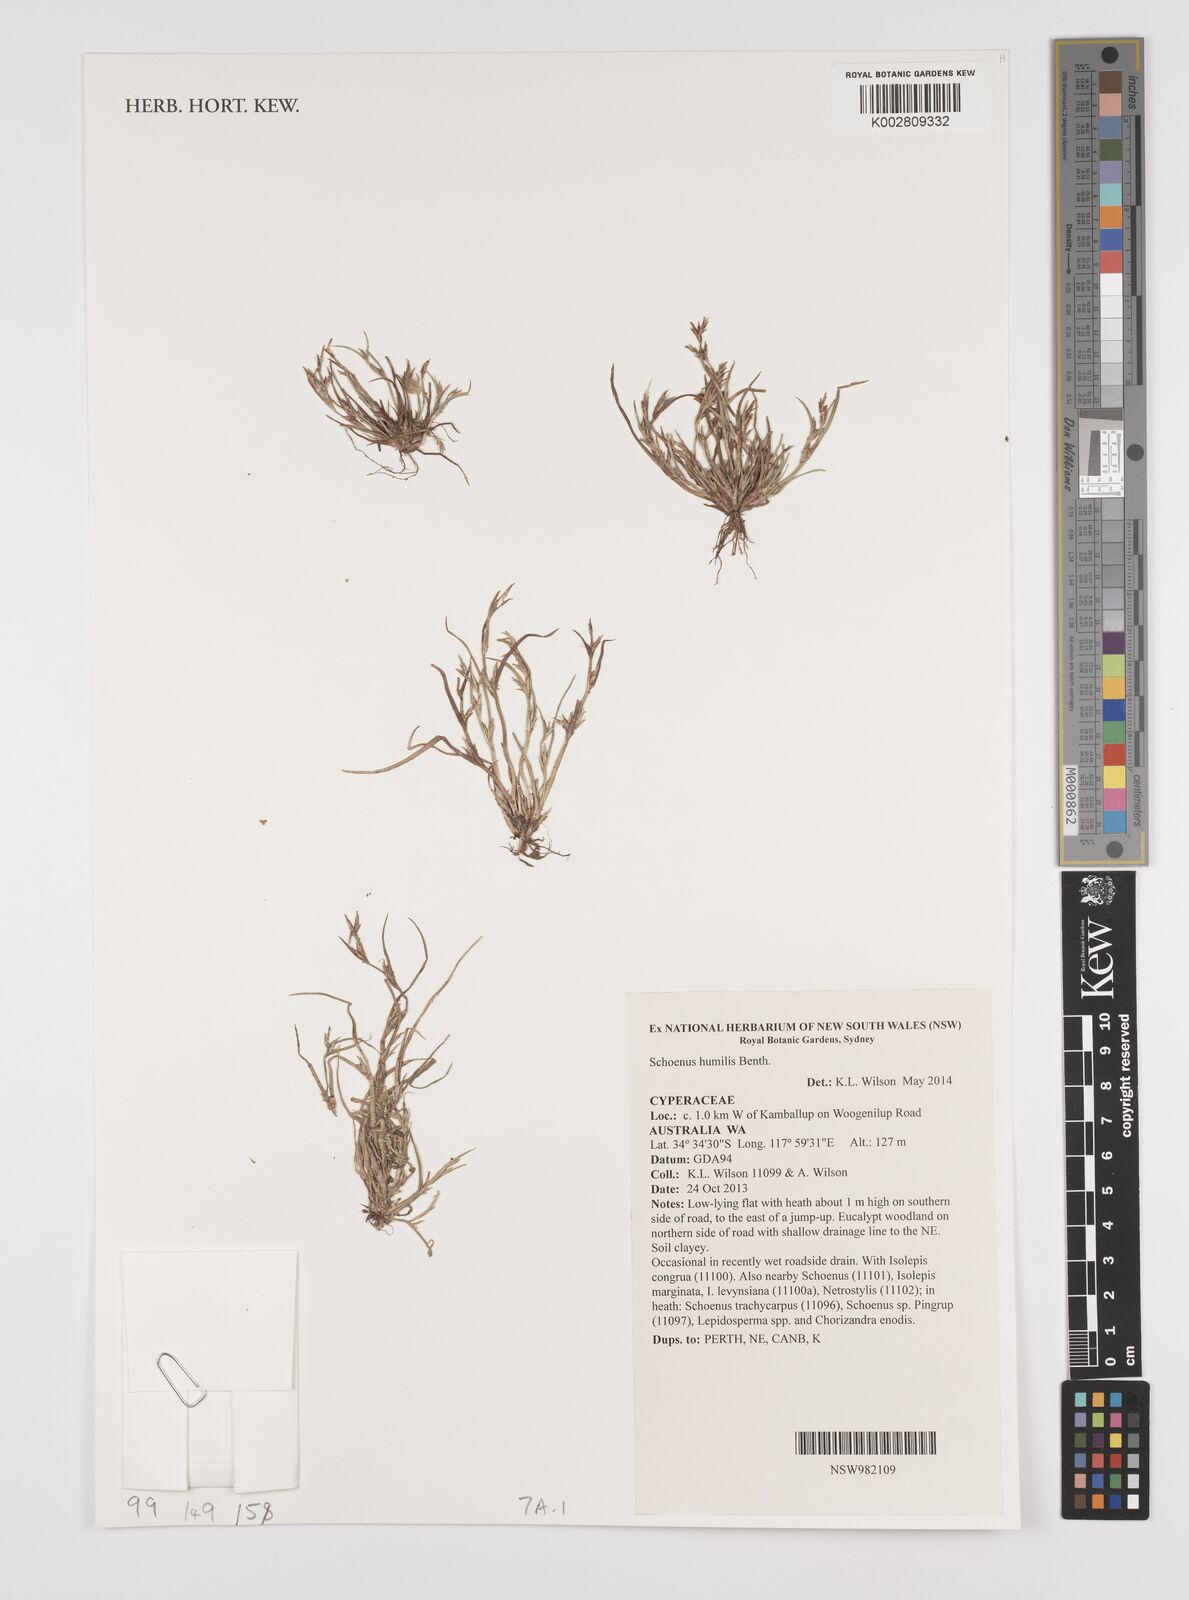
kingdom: Plantae
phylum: Tracheophyta
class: Liliopsida
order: Poales
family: Cyperaceae
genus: Schoenus
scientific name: Schoenus humilis
